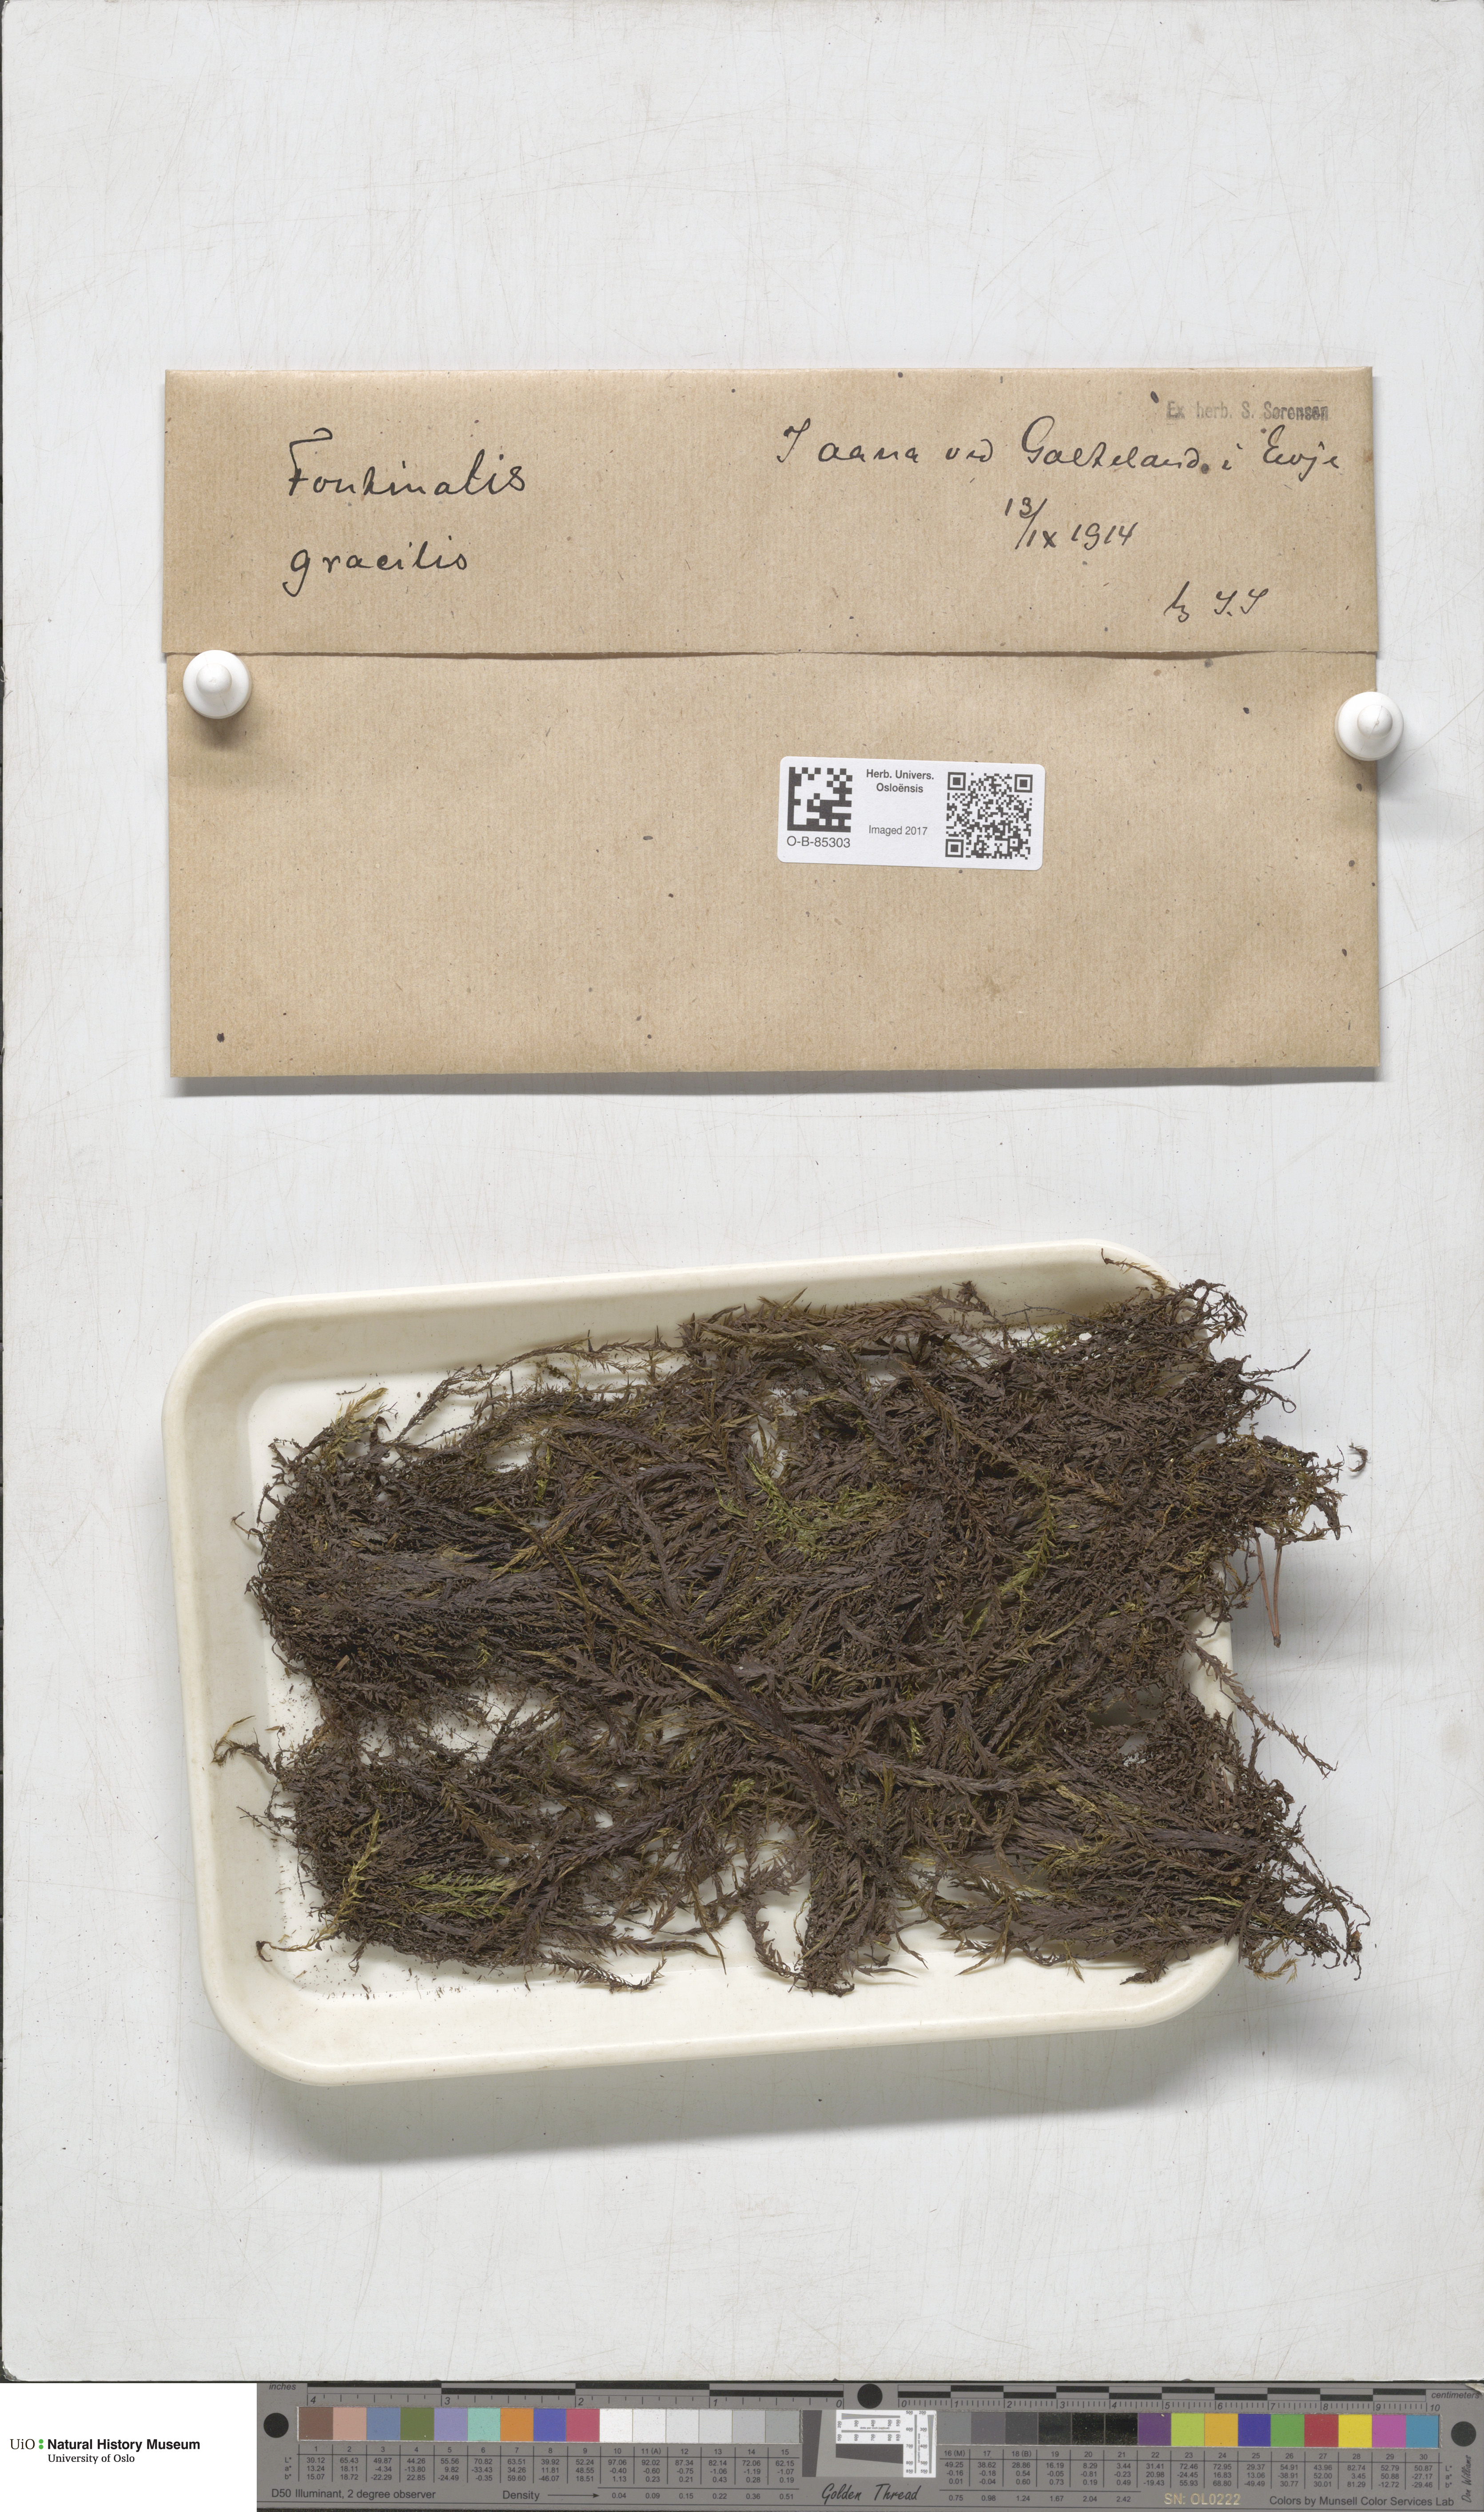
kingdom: Plantae
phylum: Bryophyta
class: Bryopsida
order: Hypnales
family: Fontinalaceae
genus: Fontinalis
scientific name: Fontinalis antipyretica
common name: Greater water-moss
